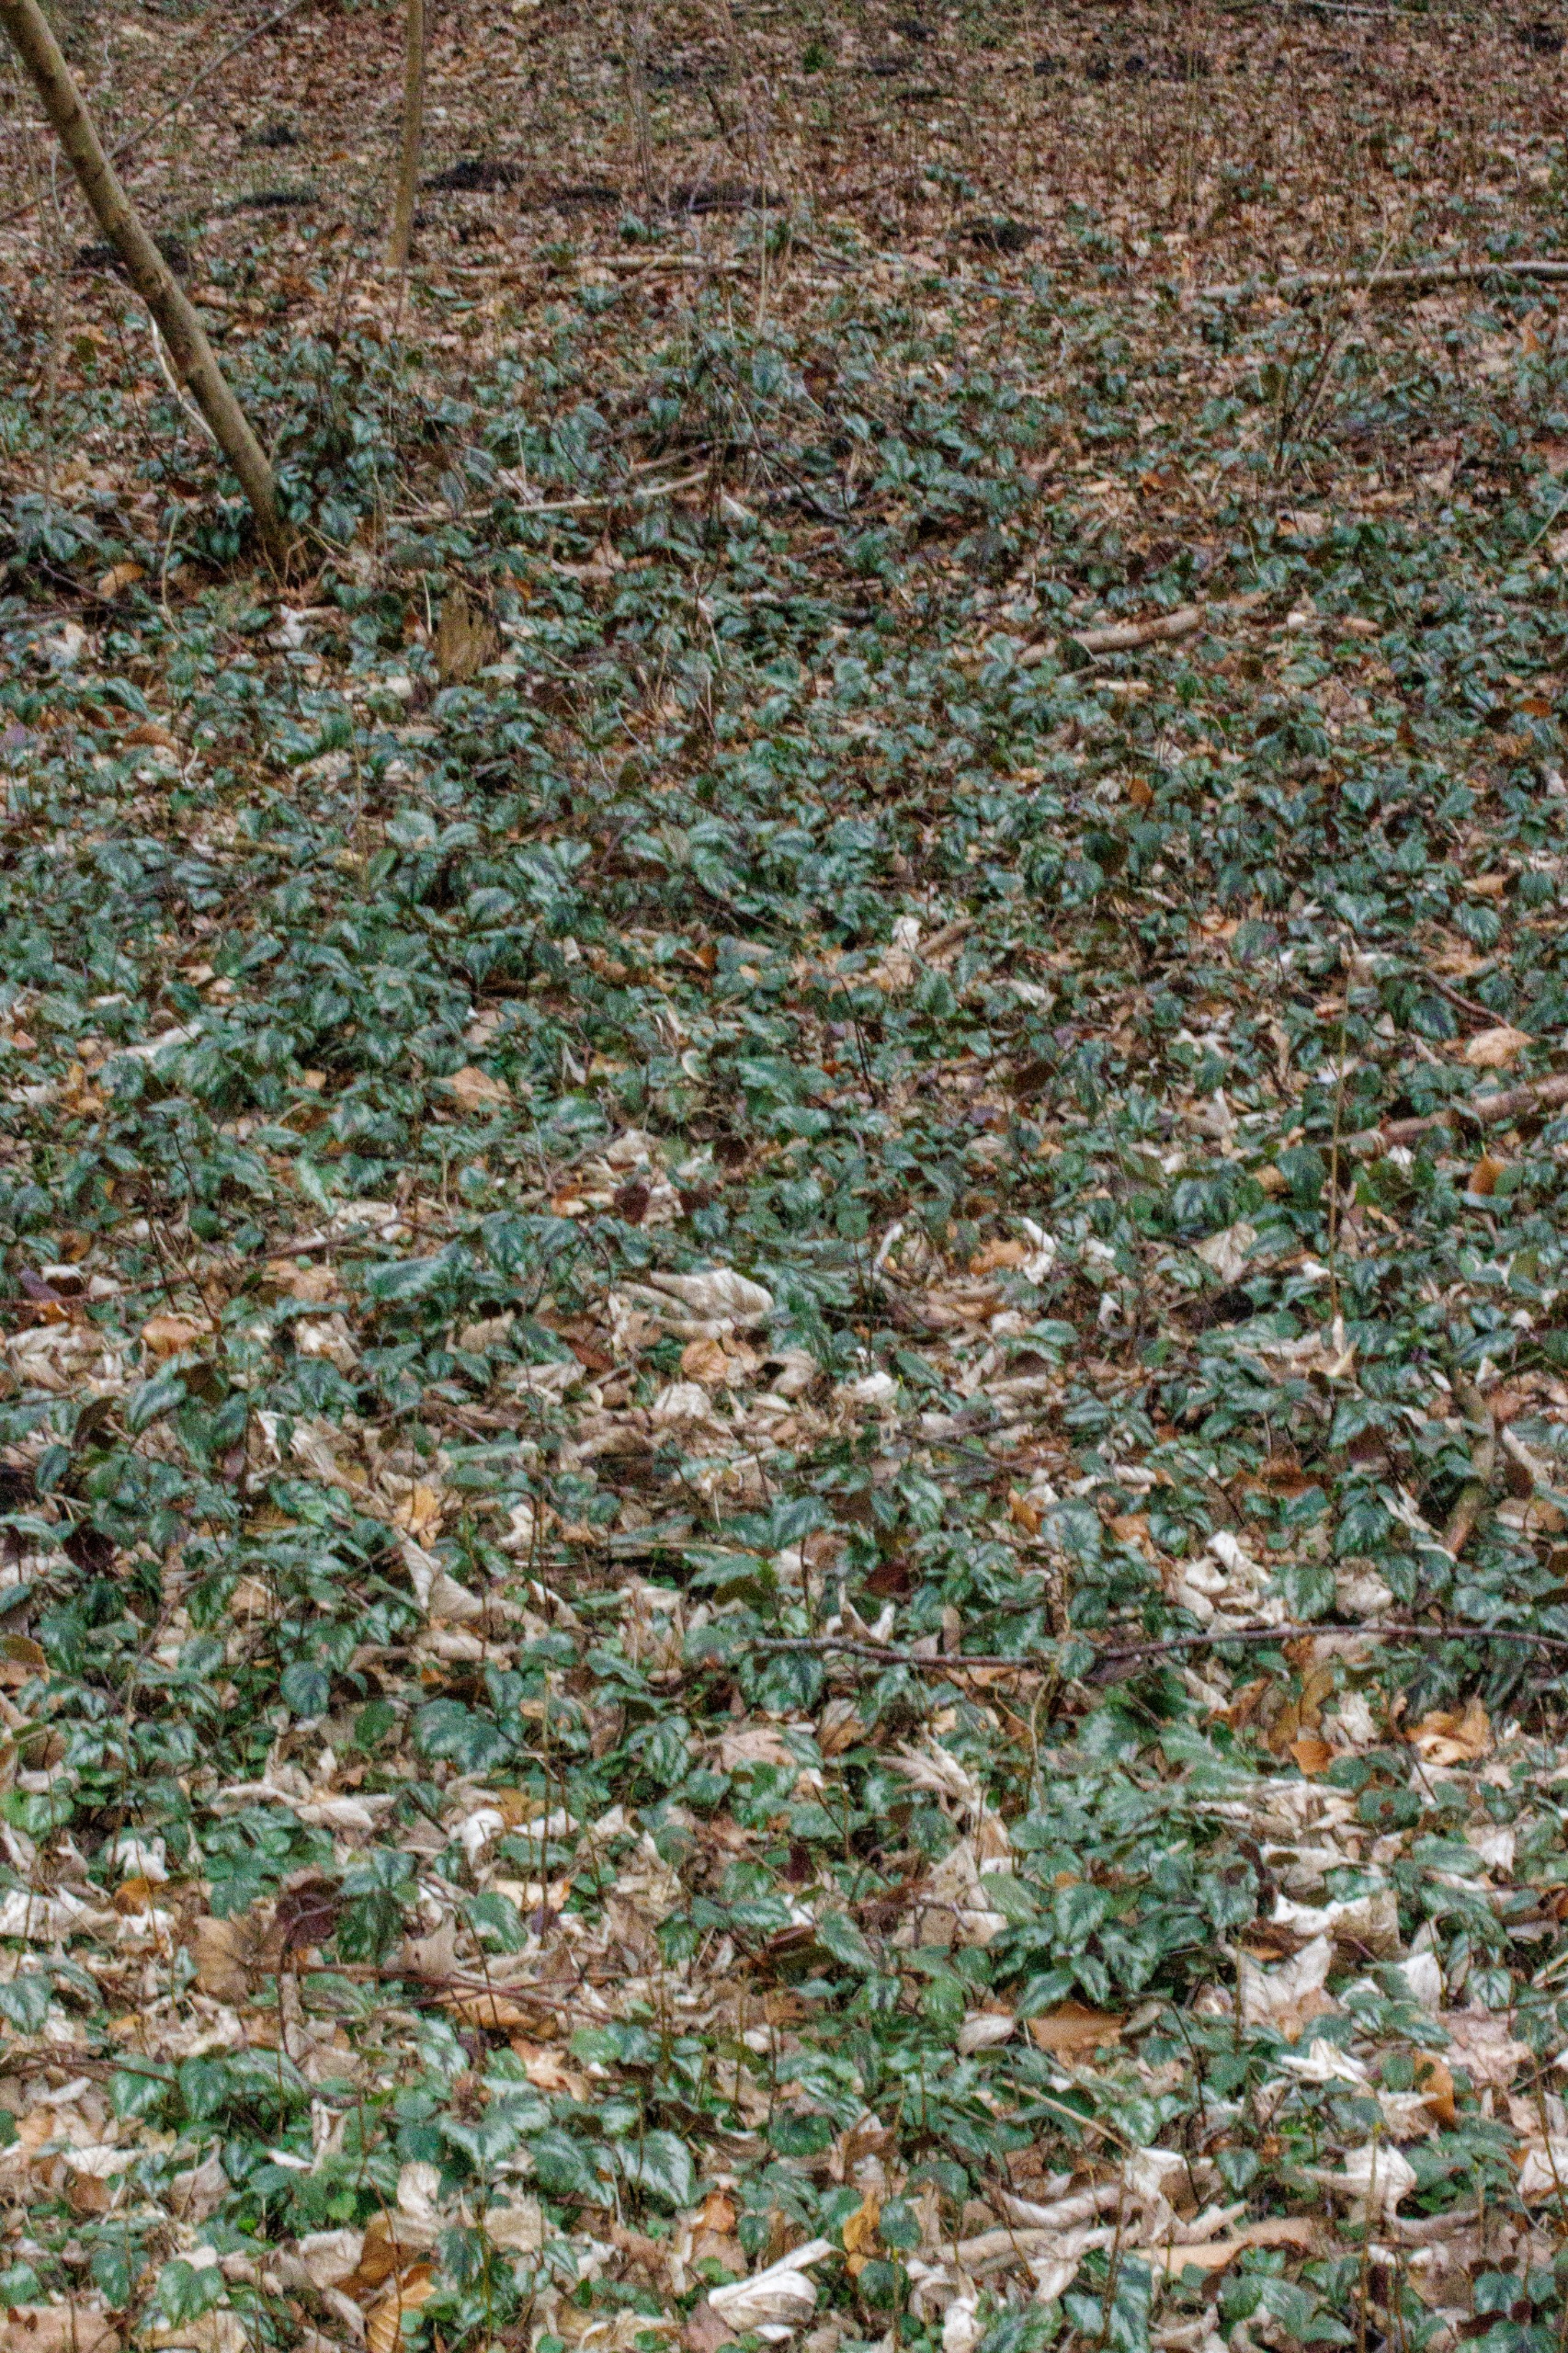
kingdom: Plantae
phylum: Tracheophyta
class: Magnoliopsida
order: Lamiales
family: Lamiaceae
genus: Lamium
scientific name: Lamium galeobdolon
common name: Have-guldnælde
